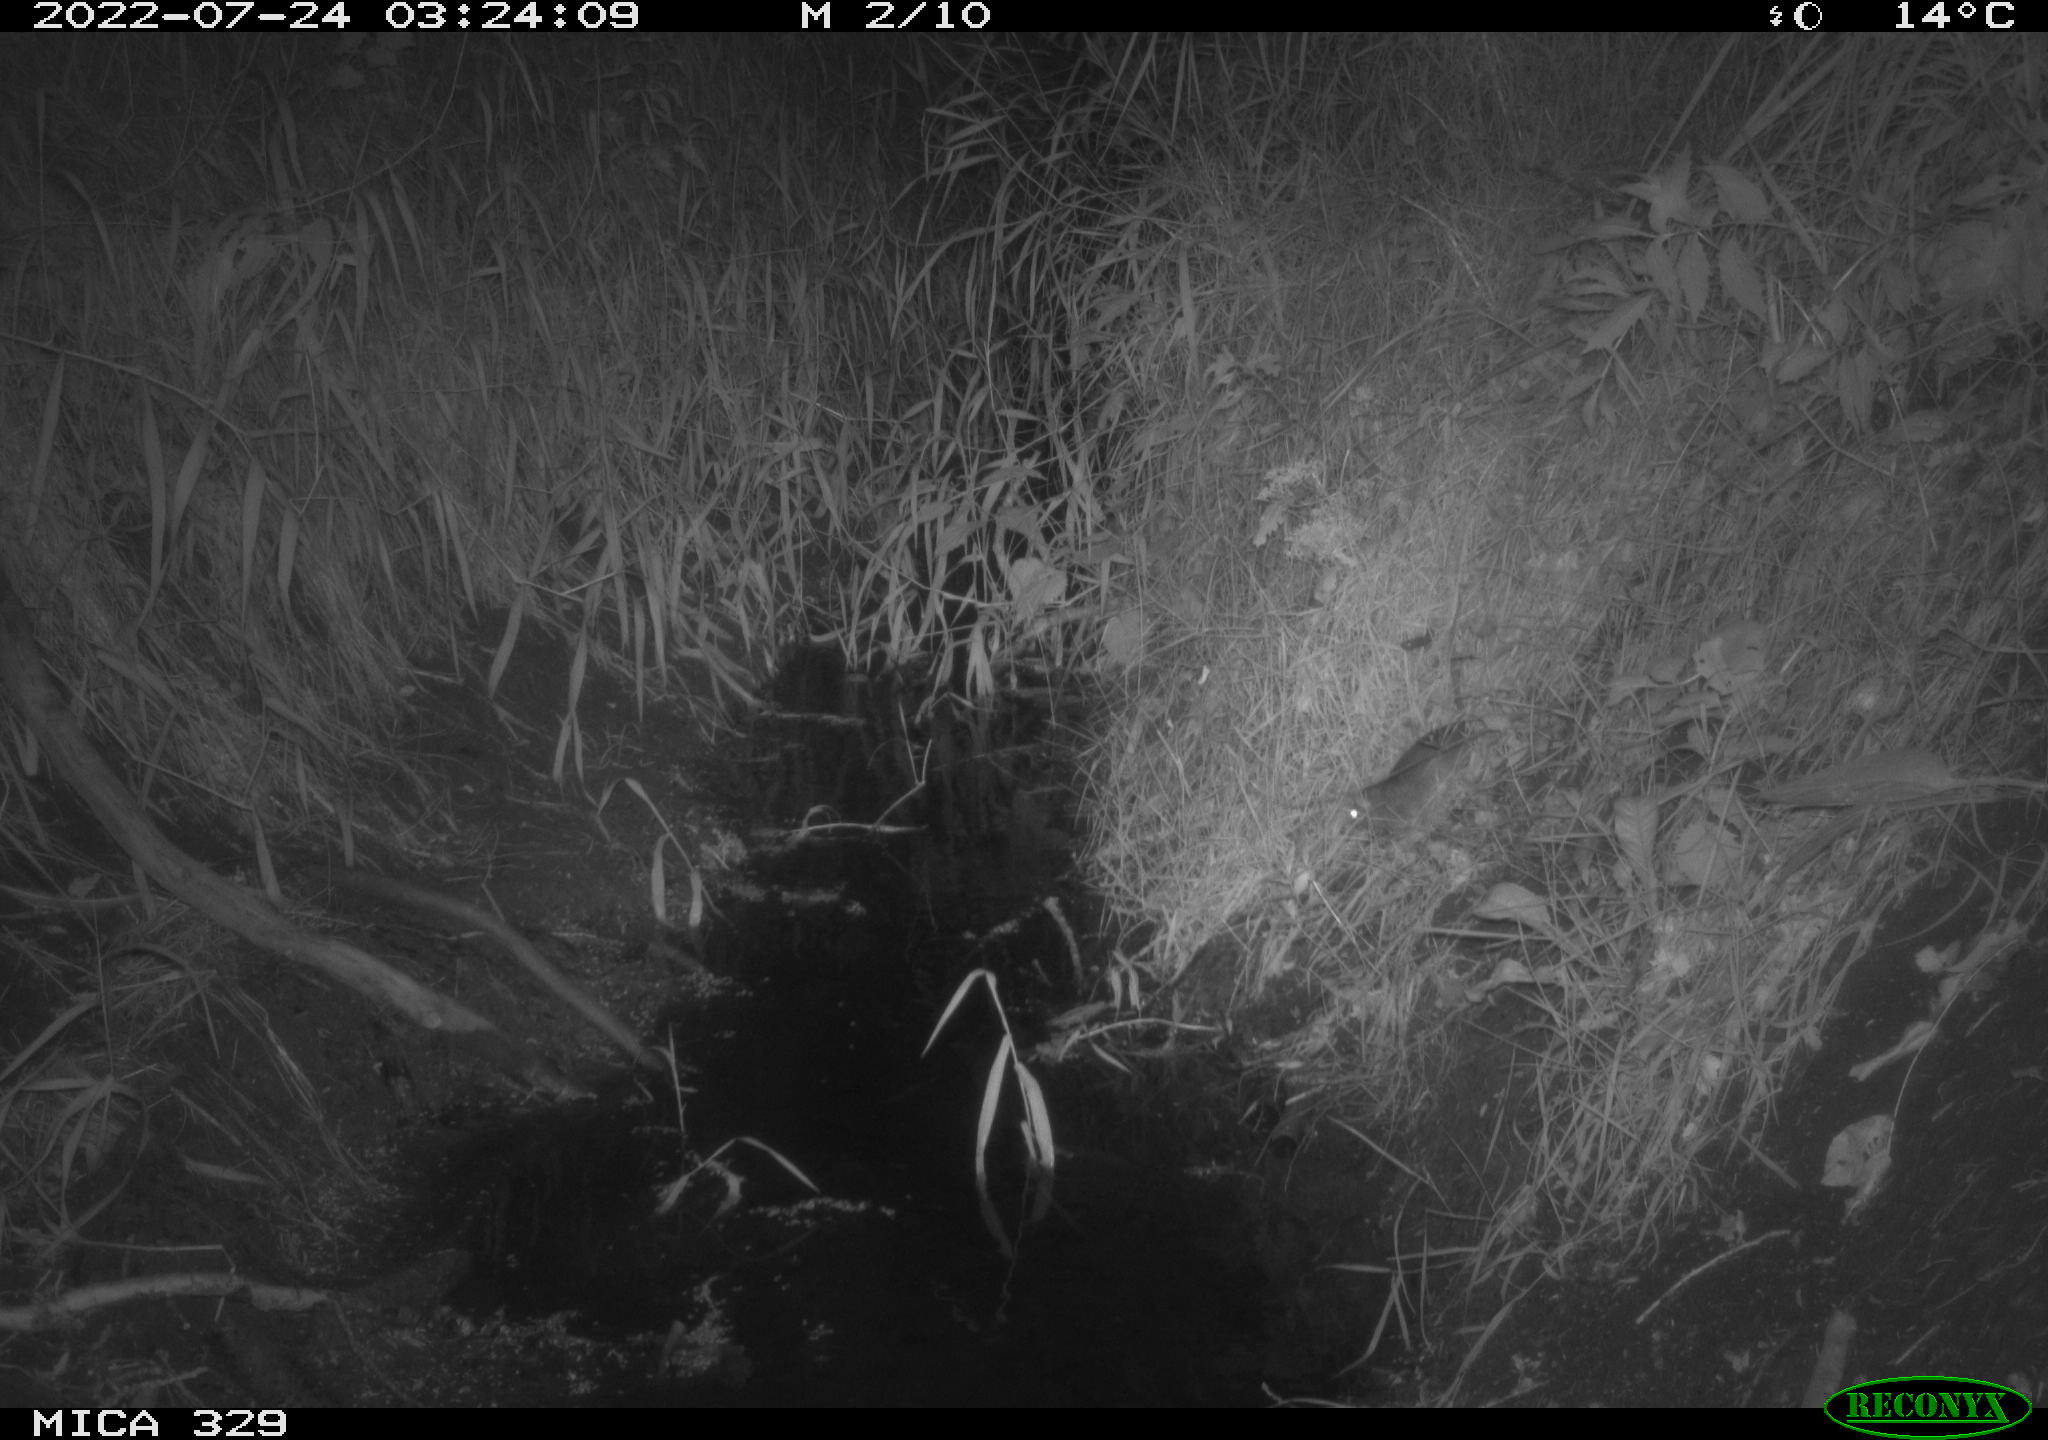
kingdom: Animalia
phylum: Chordata
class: Mammalia
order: Rodentia
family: Muridae
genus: Rattus
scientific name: Rattus norvegicus
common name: Brown rat
